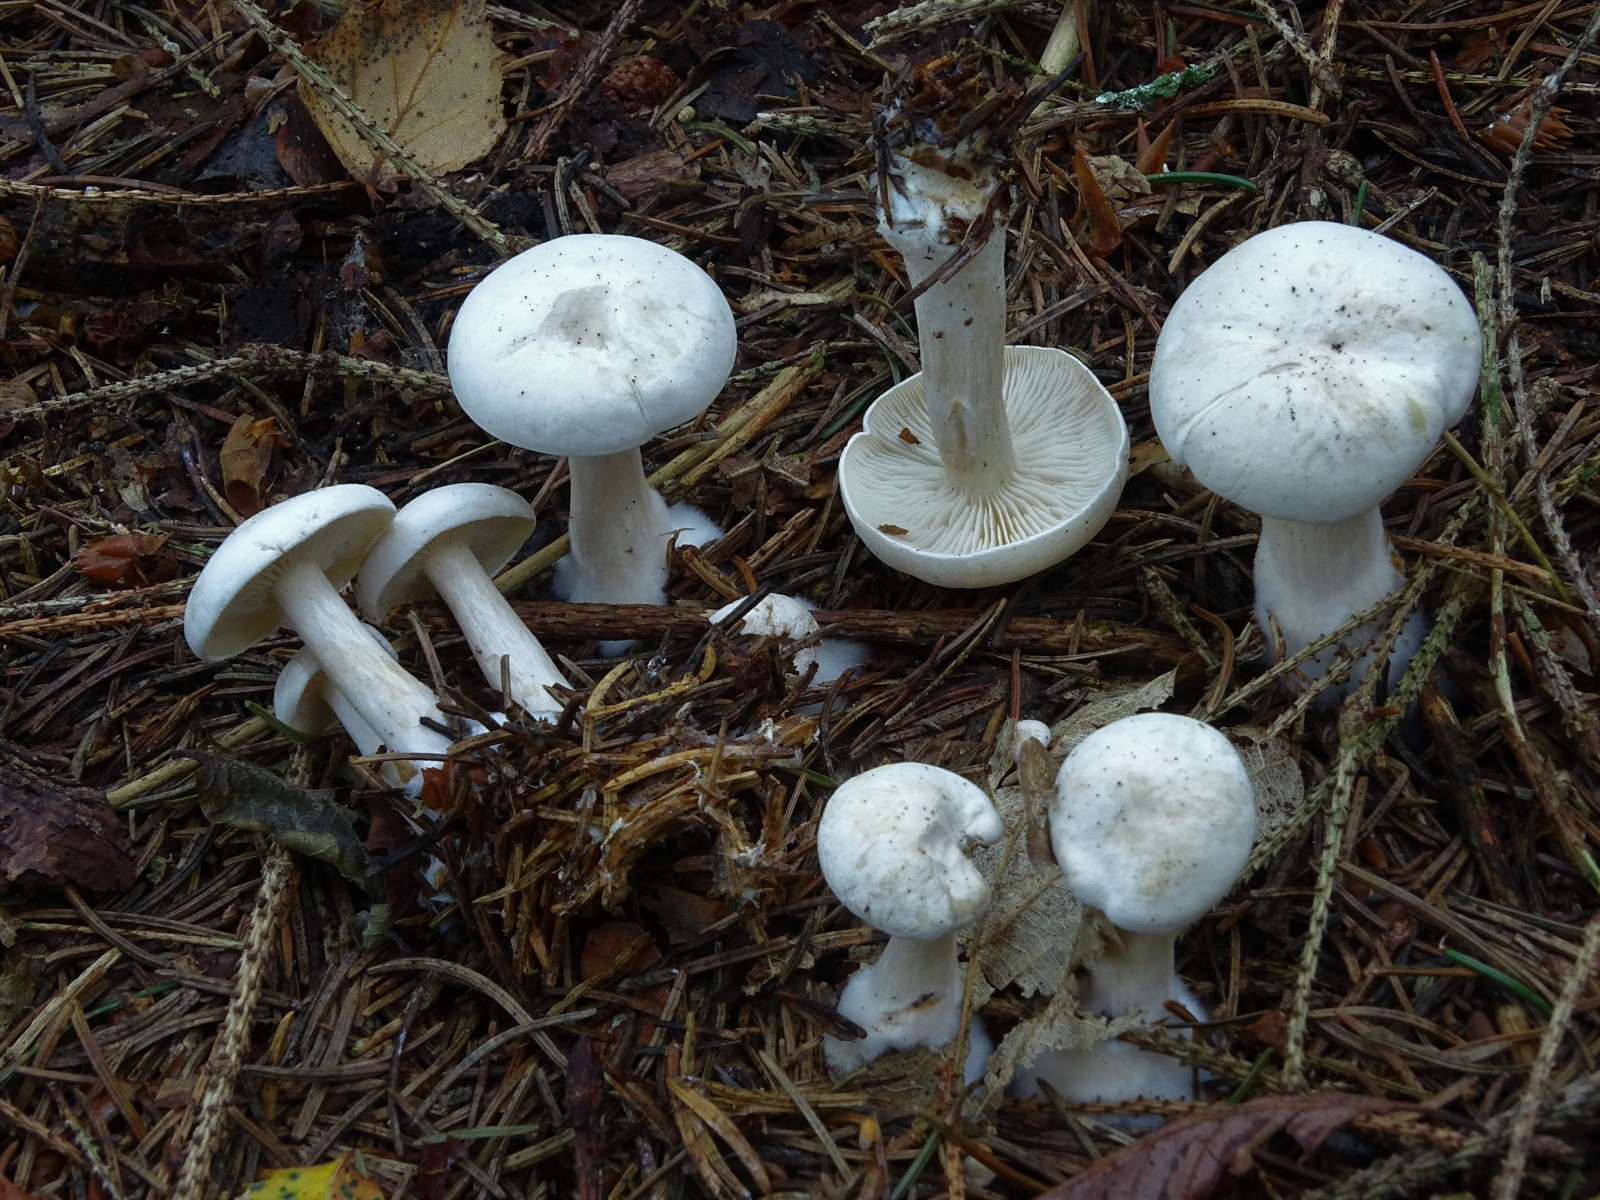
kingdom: Fungi
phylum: Basidiomycota
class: Agaricomycetes
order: Agaricales
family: Tricholomataceae
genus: Clitocybe
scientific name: Clitocybe phyllophila
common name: løv-tragthat
